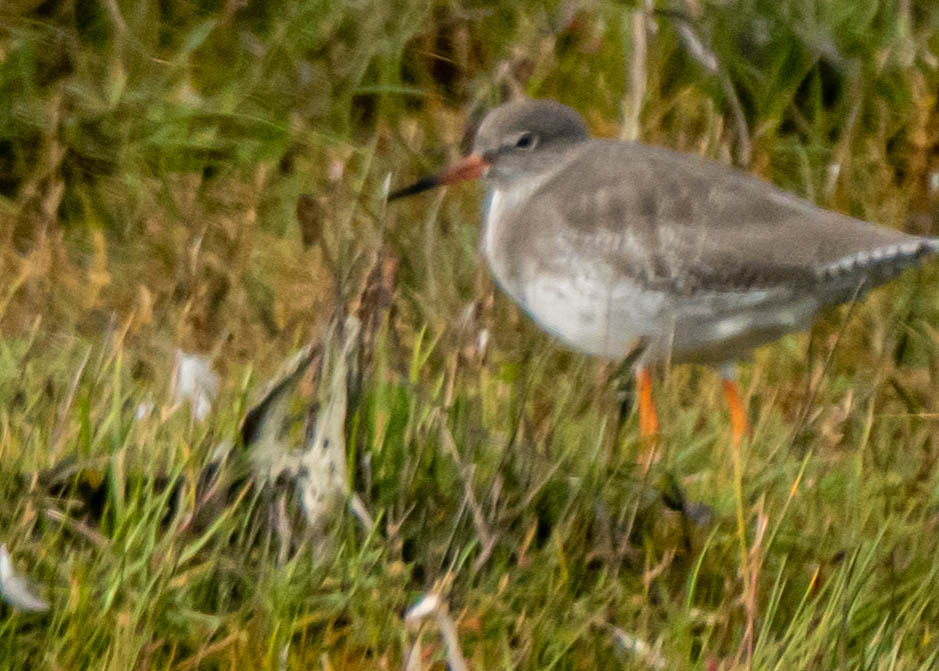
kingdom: Animalia
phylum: Chordata
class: Aves
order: Charadriiformes
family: Scolopacidae
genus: Tringa
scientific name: Tringa totanus
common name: Rødben
